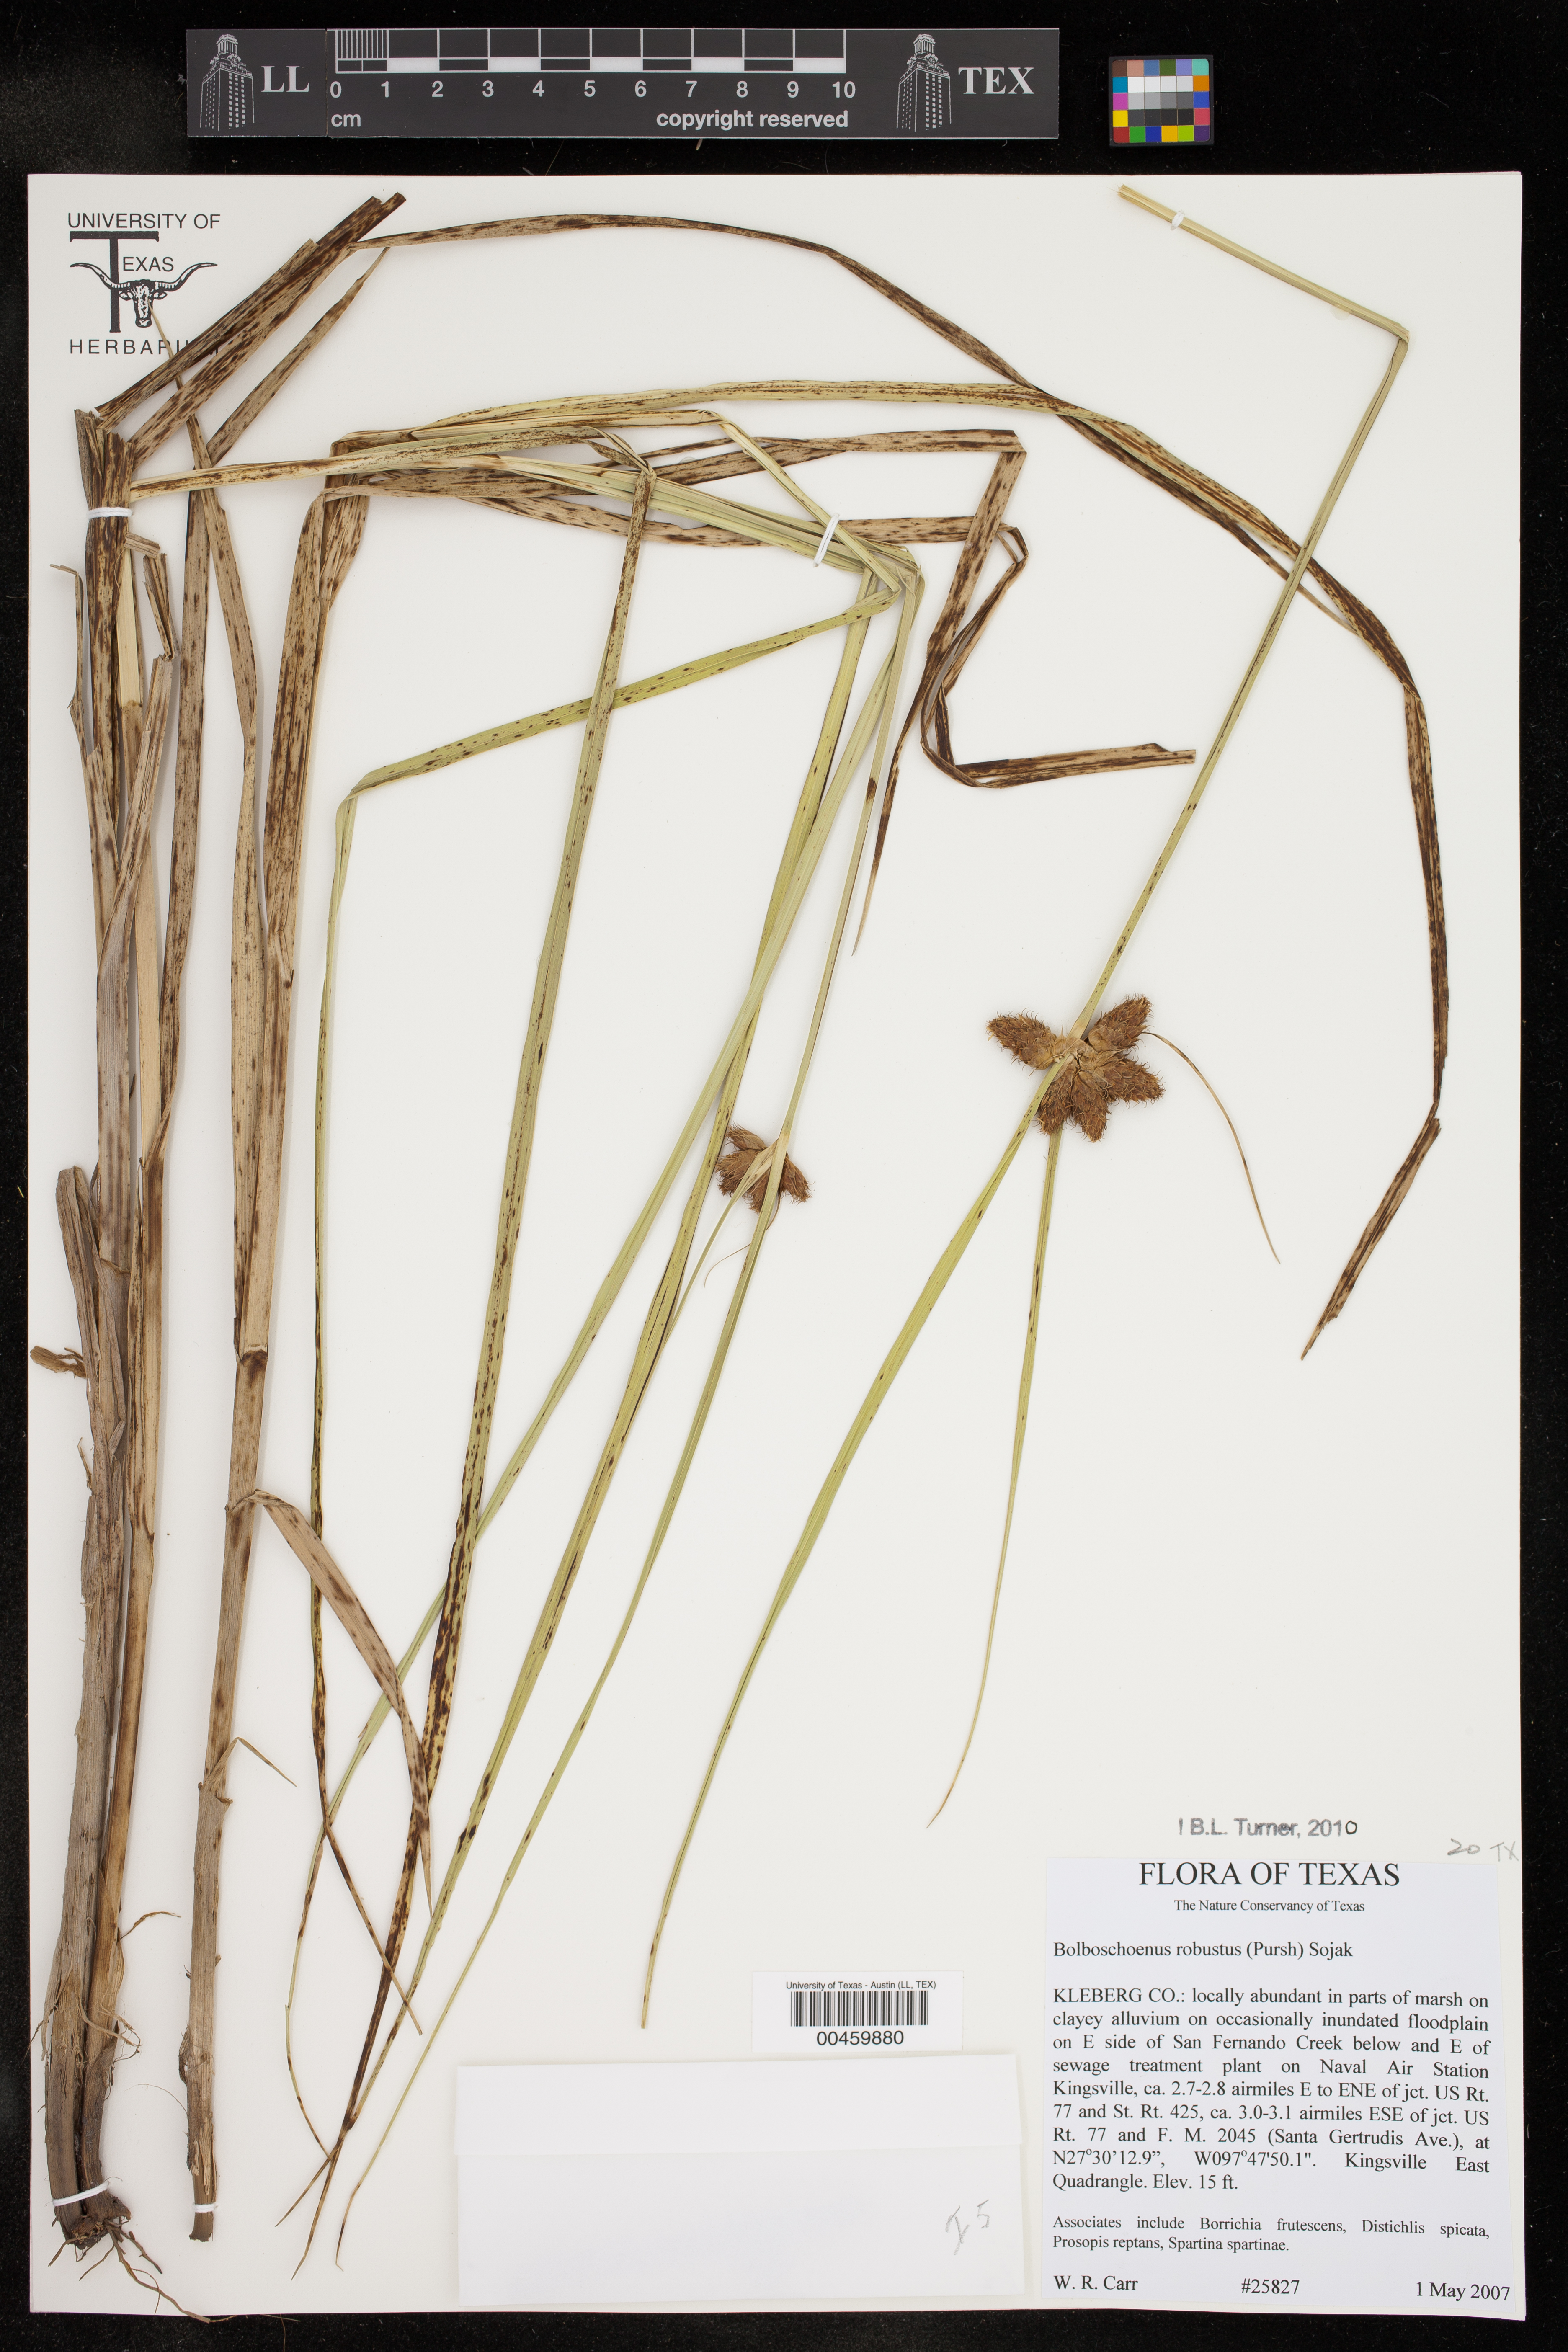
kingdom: Plantae
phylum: Tracheophyta
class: Liliopsida
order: Poales
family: Cyperaceae
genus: Bolboschoenus
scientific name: Bolboschoenus robustus
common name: Seacoast bulrush
